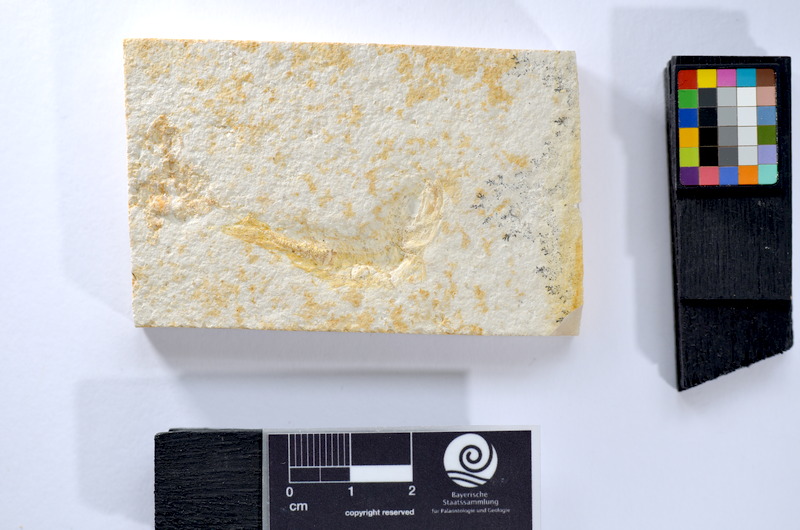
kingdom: Animalia
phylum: Chordata
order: Salmoniformes
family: Orthogonikleithridae
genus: Leptolepides
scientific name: Leptolepides
